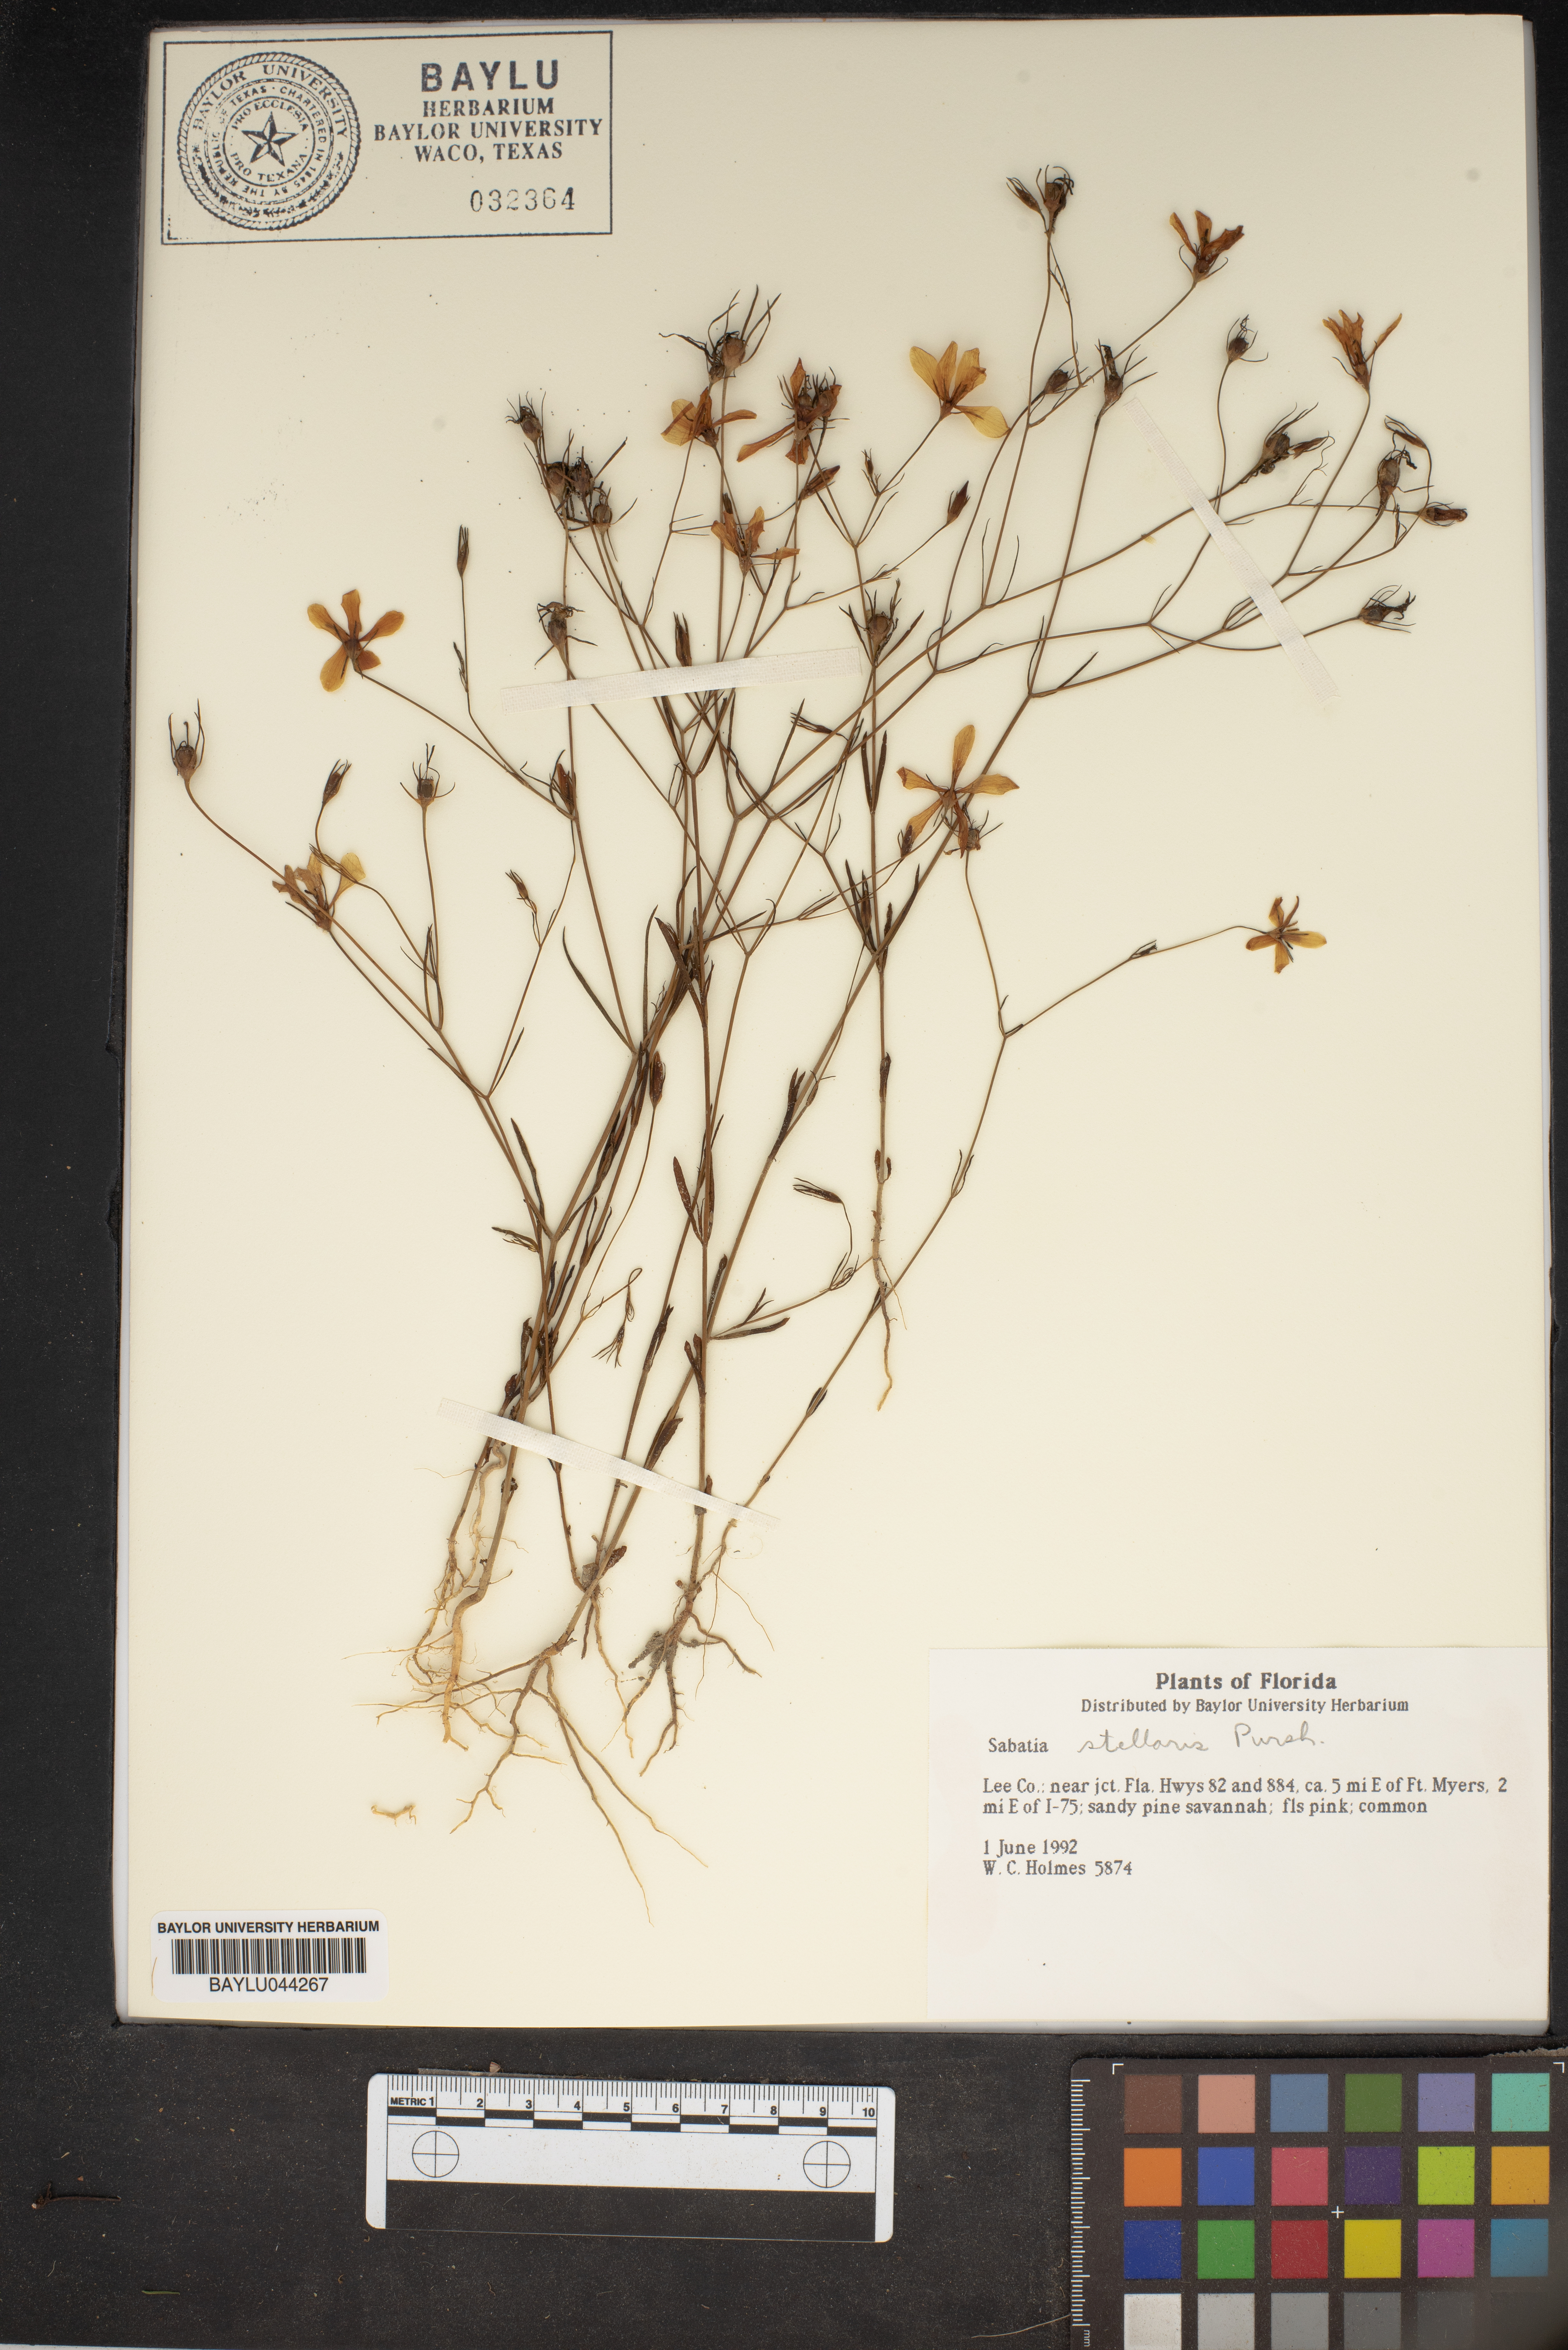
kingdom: Plantae
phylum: Tracheophyta
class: Magnoliopsida
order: Gentianales
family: Gentianaceae
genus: Sabatia
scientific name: Sabatia stellaris
